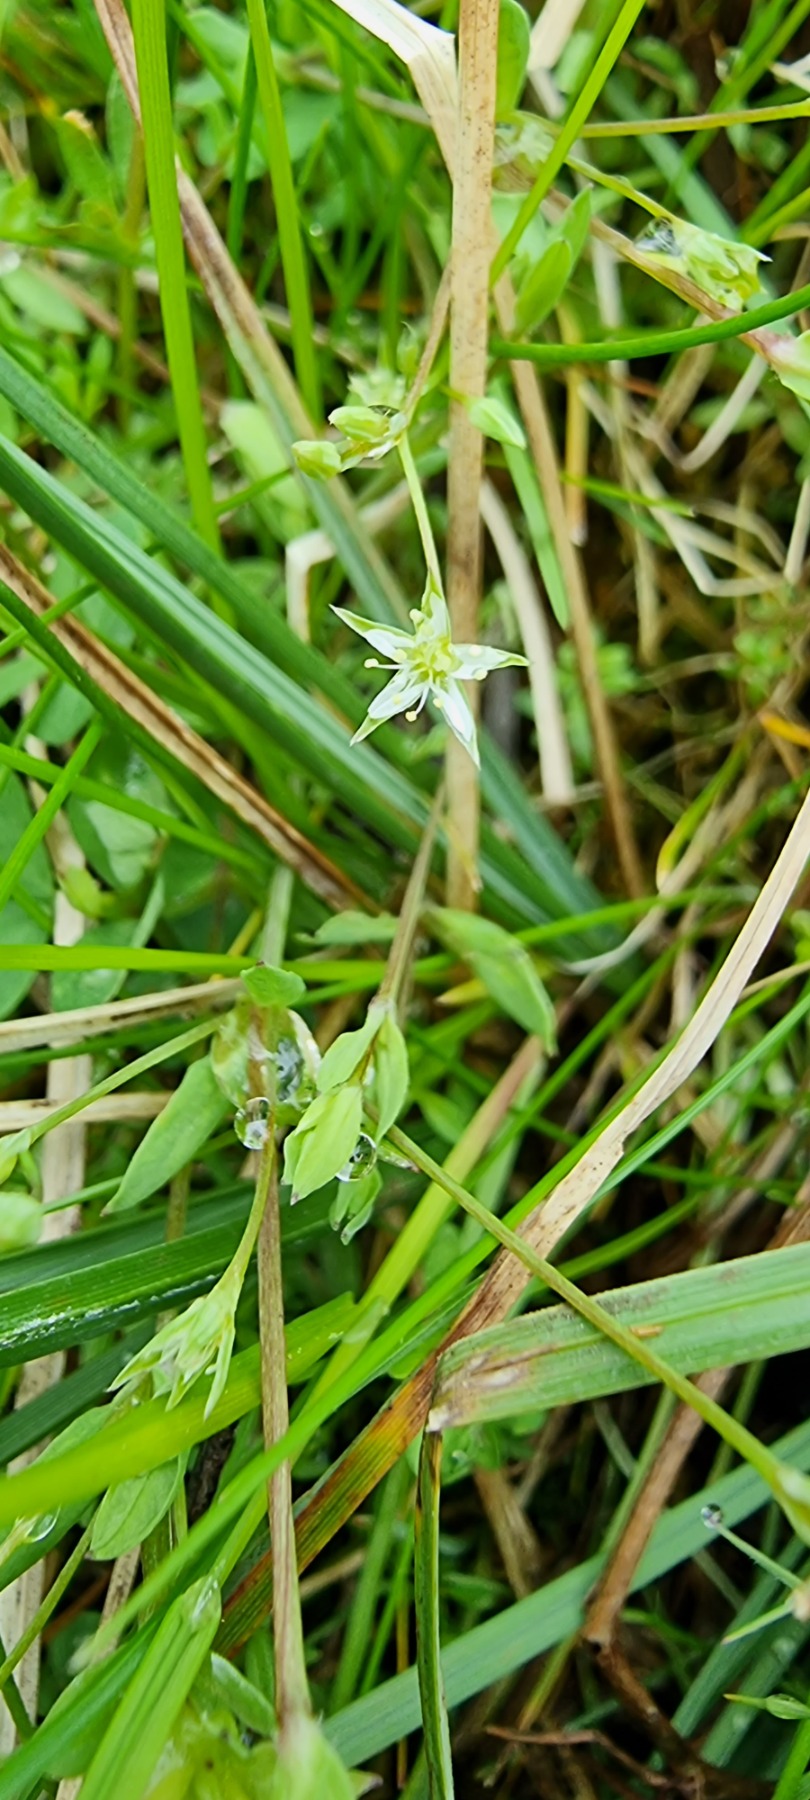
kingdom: Plantae
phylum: Tracheophyta
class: Magnoliopsida
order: Caryophyllales
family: Caryophyllaceae
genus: Stellaria
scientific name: Stellaria alsine
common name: Sump-fladstjerne
